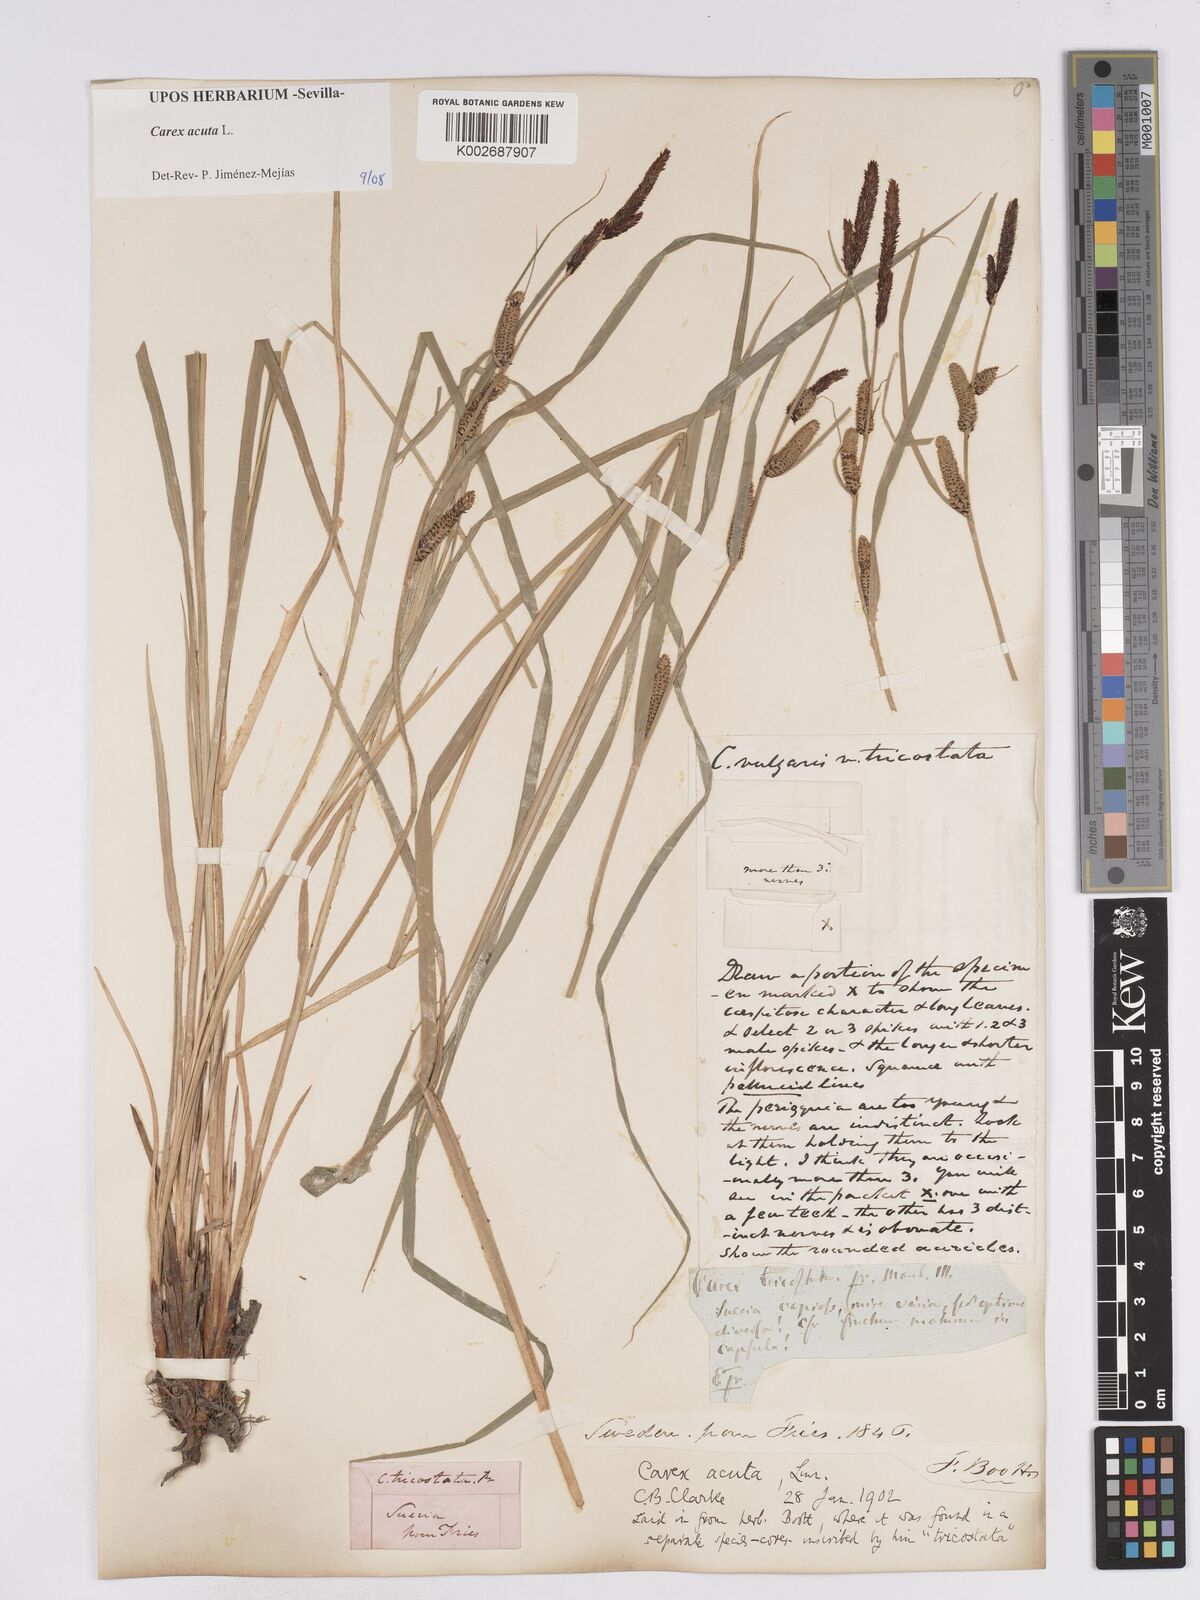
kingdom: Plantae
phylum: Tracheophyta
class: Liliopsida
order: Poales
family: Cyperaceae
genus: Carex
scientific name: Carex acuta
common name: Slender tufted-sedge
